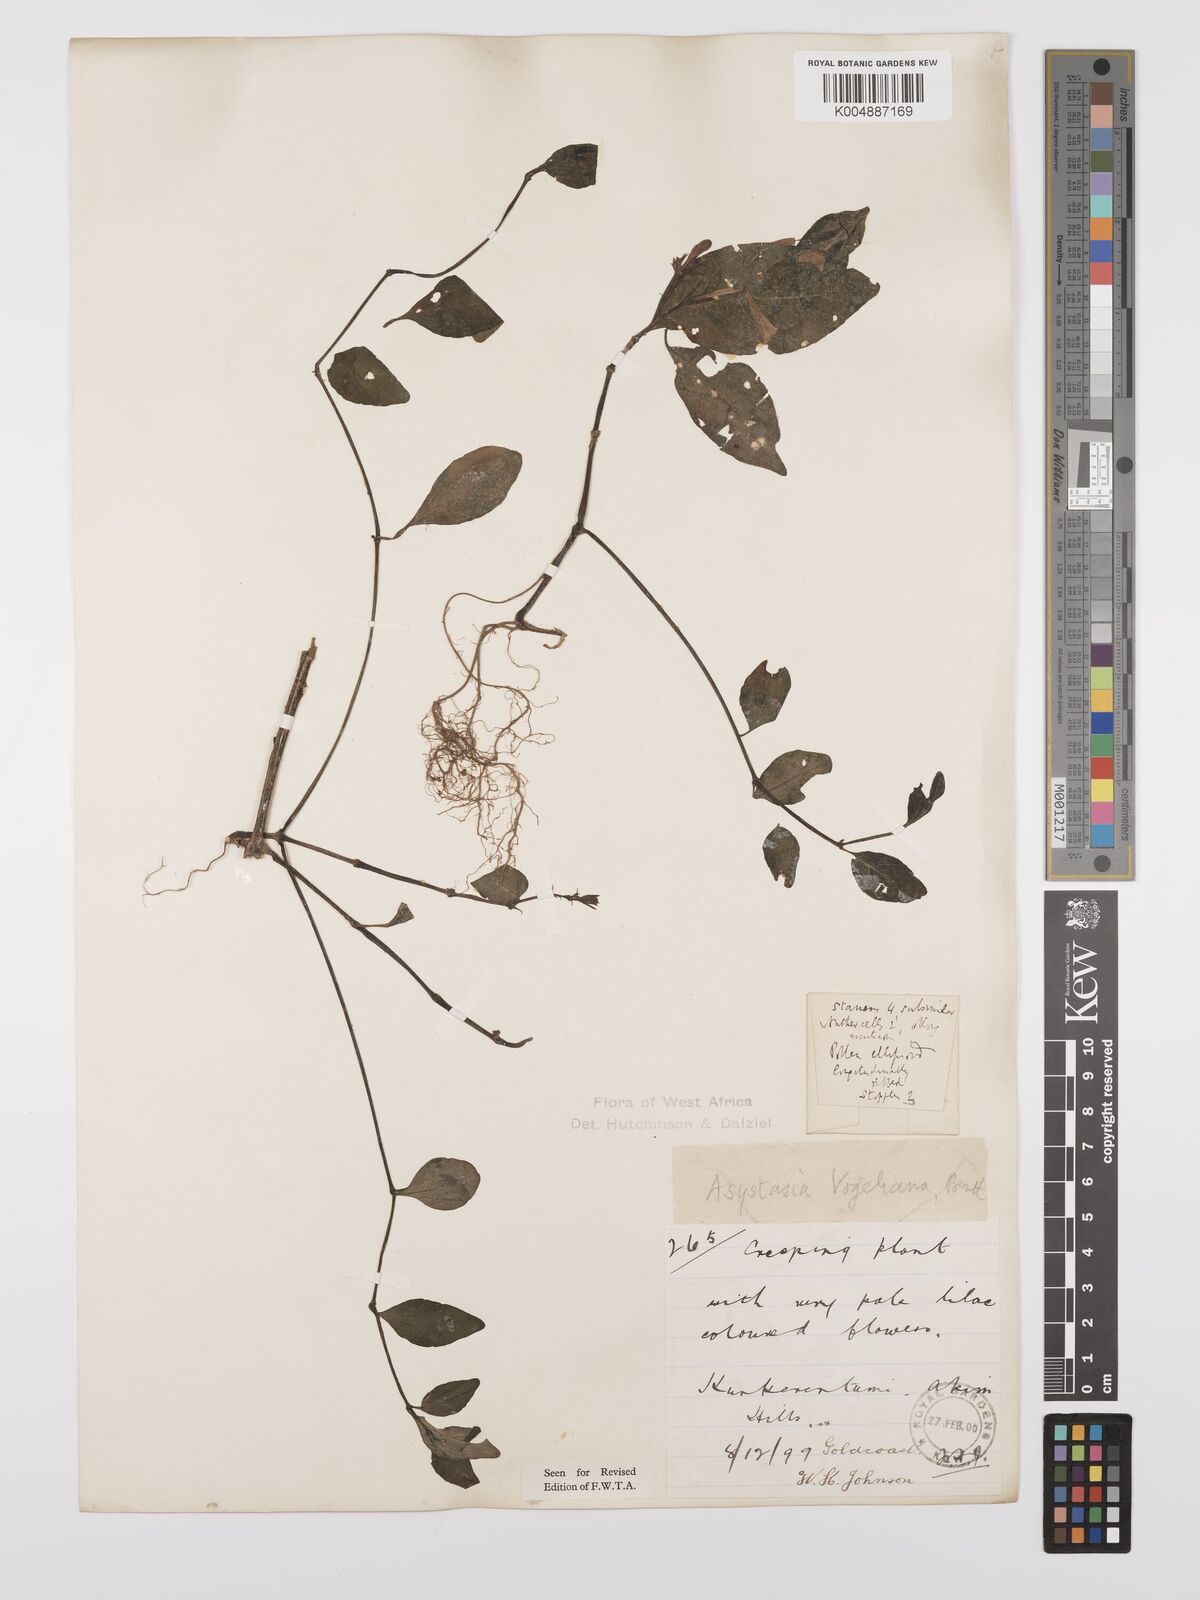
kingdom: Plantae
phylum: Tracheophyta
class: Magnoliopsida
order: Lamiales
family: Acanthaceae
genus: Asystasia
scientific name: Asystasia vogeliana
